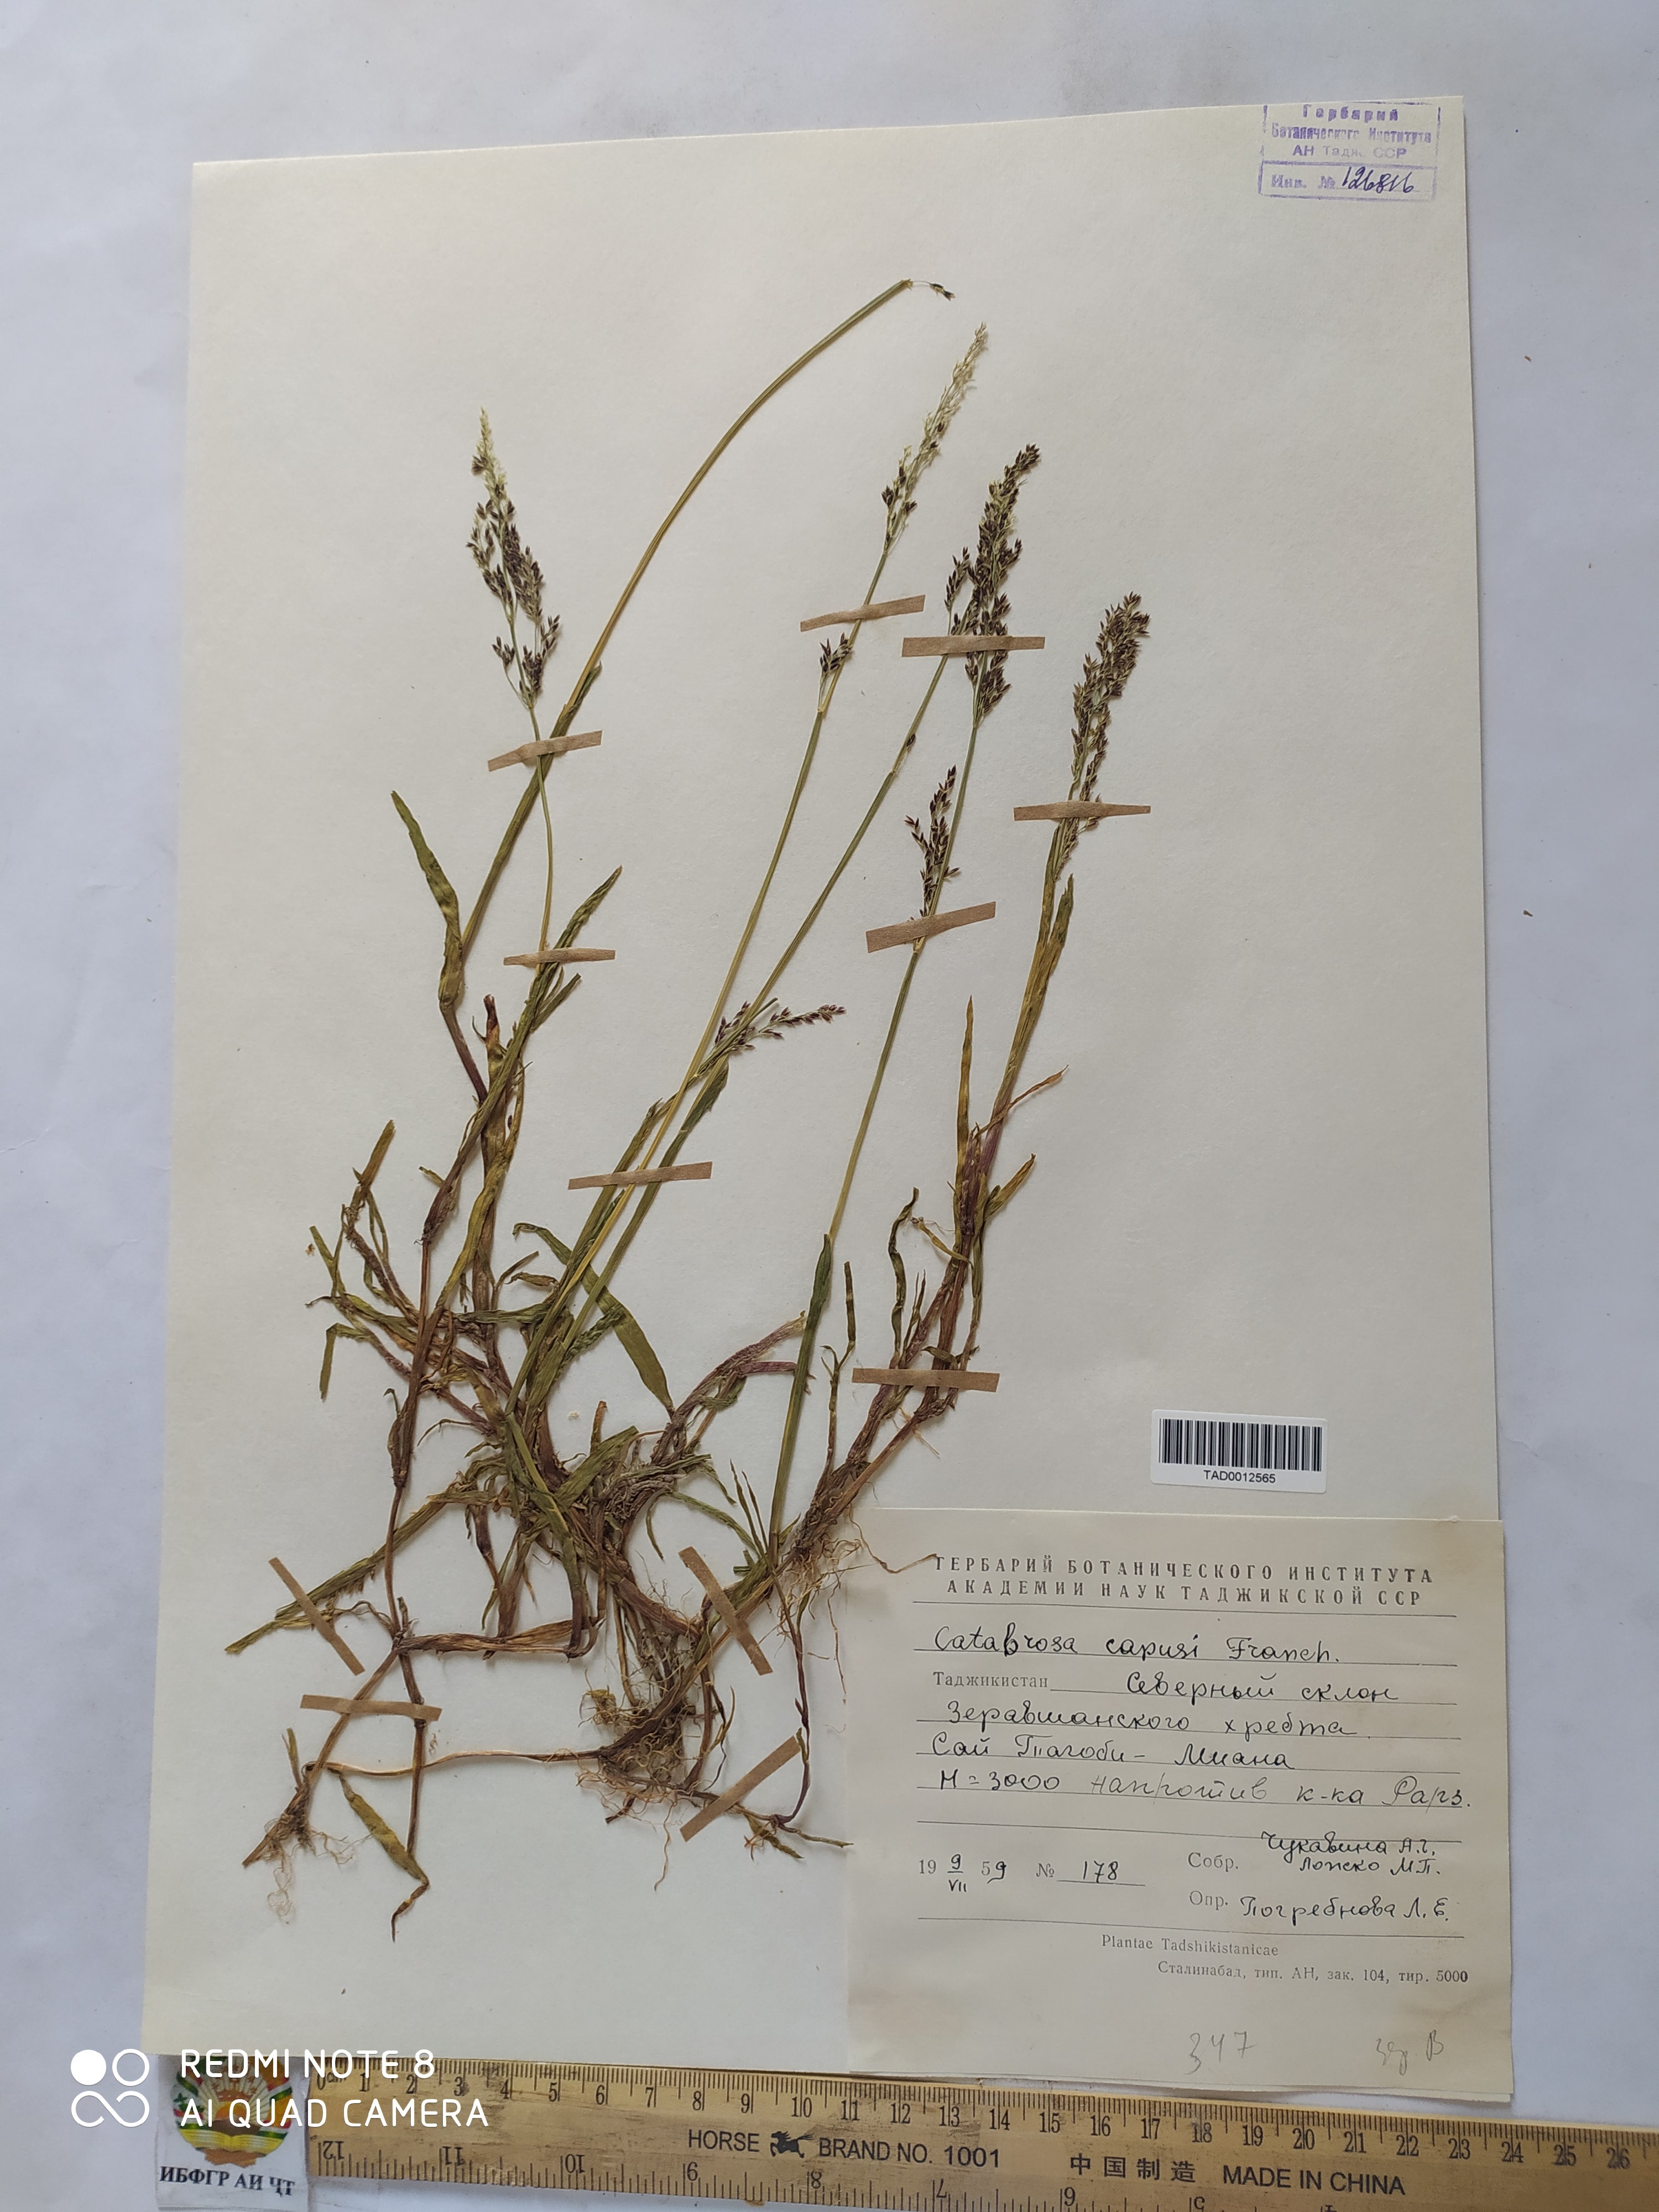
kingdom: Plantae
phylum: Tracheophyta
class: Liliopsida
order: Poales
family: Poaceae
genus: Catabrosa
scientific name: Catabrosa aquatica
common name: Whorl-grass
